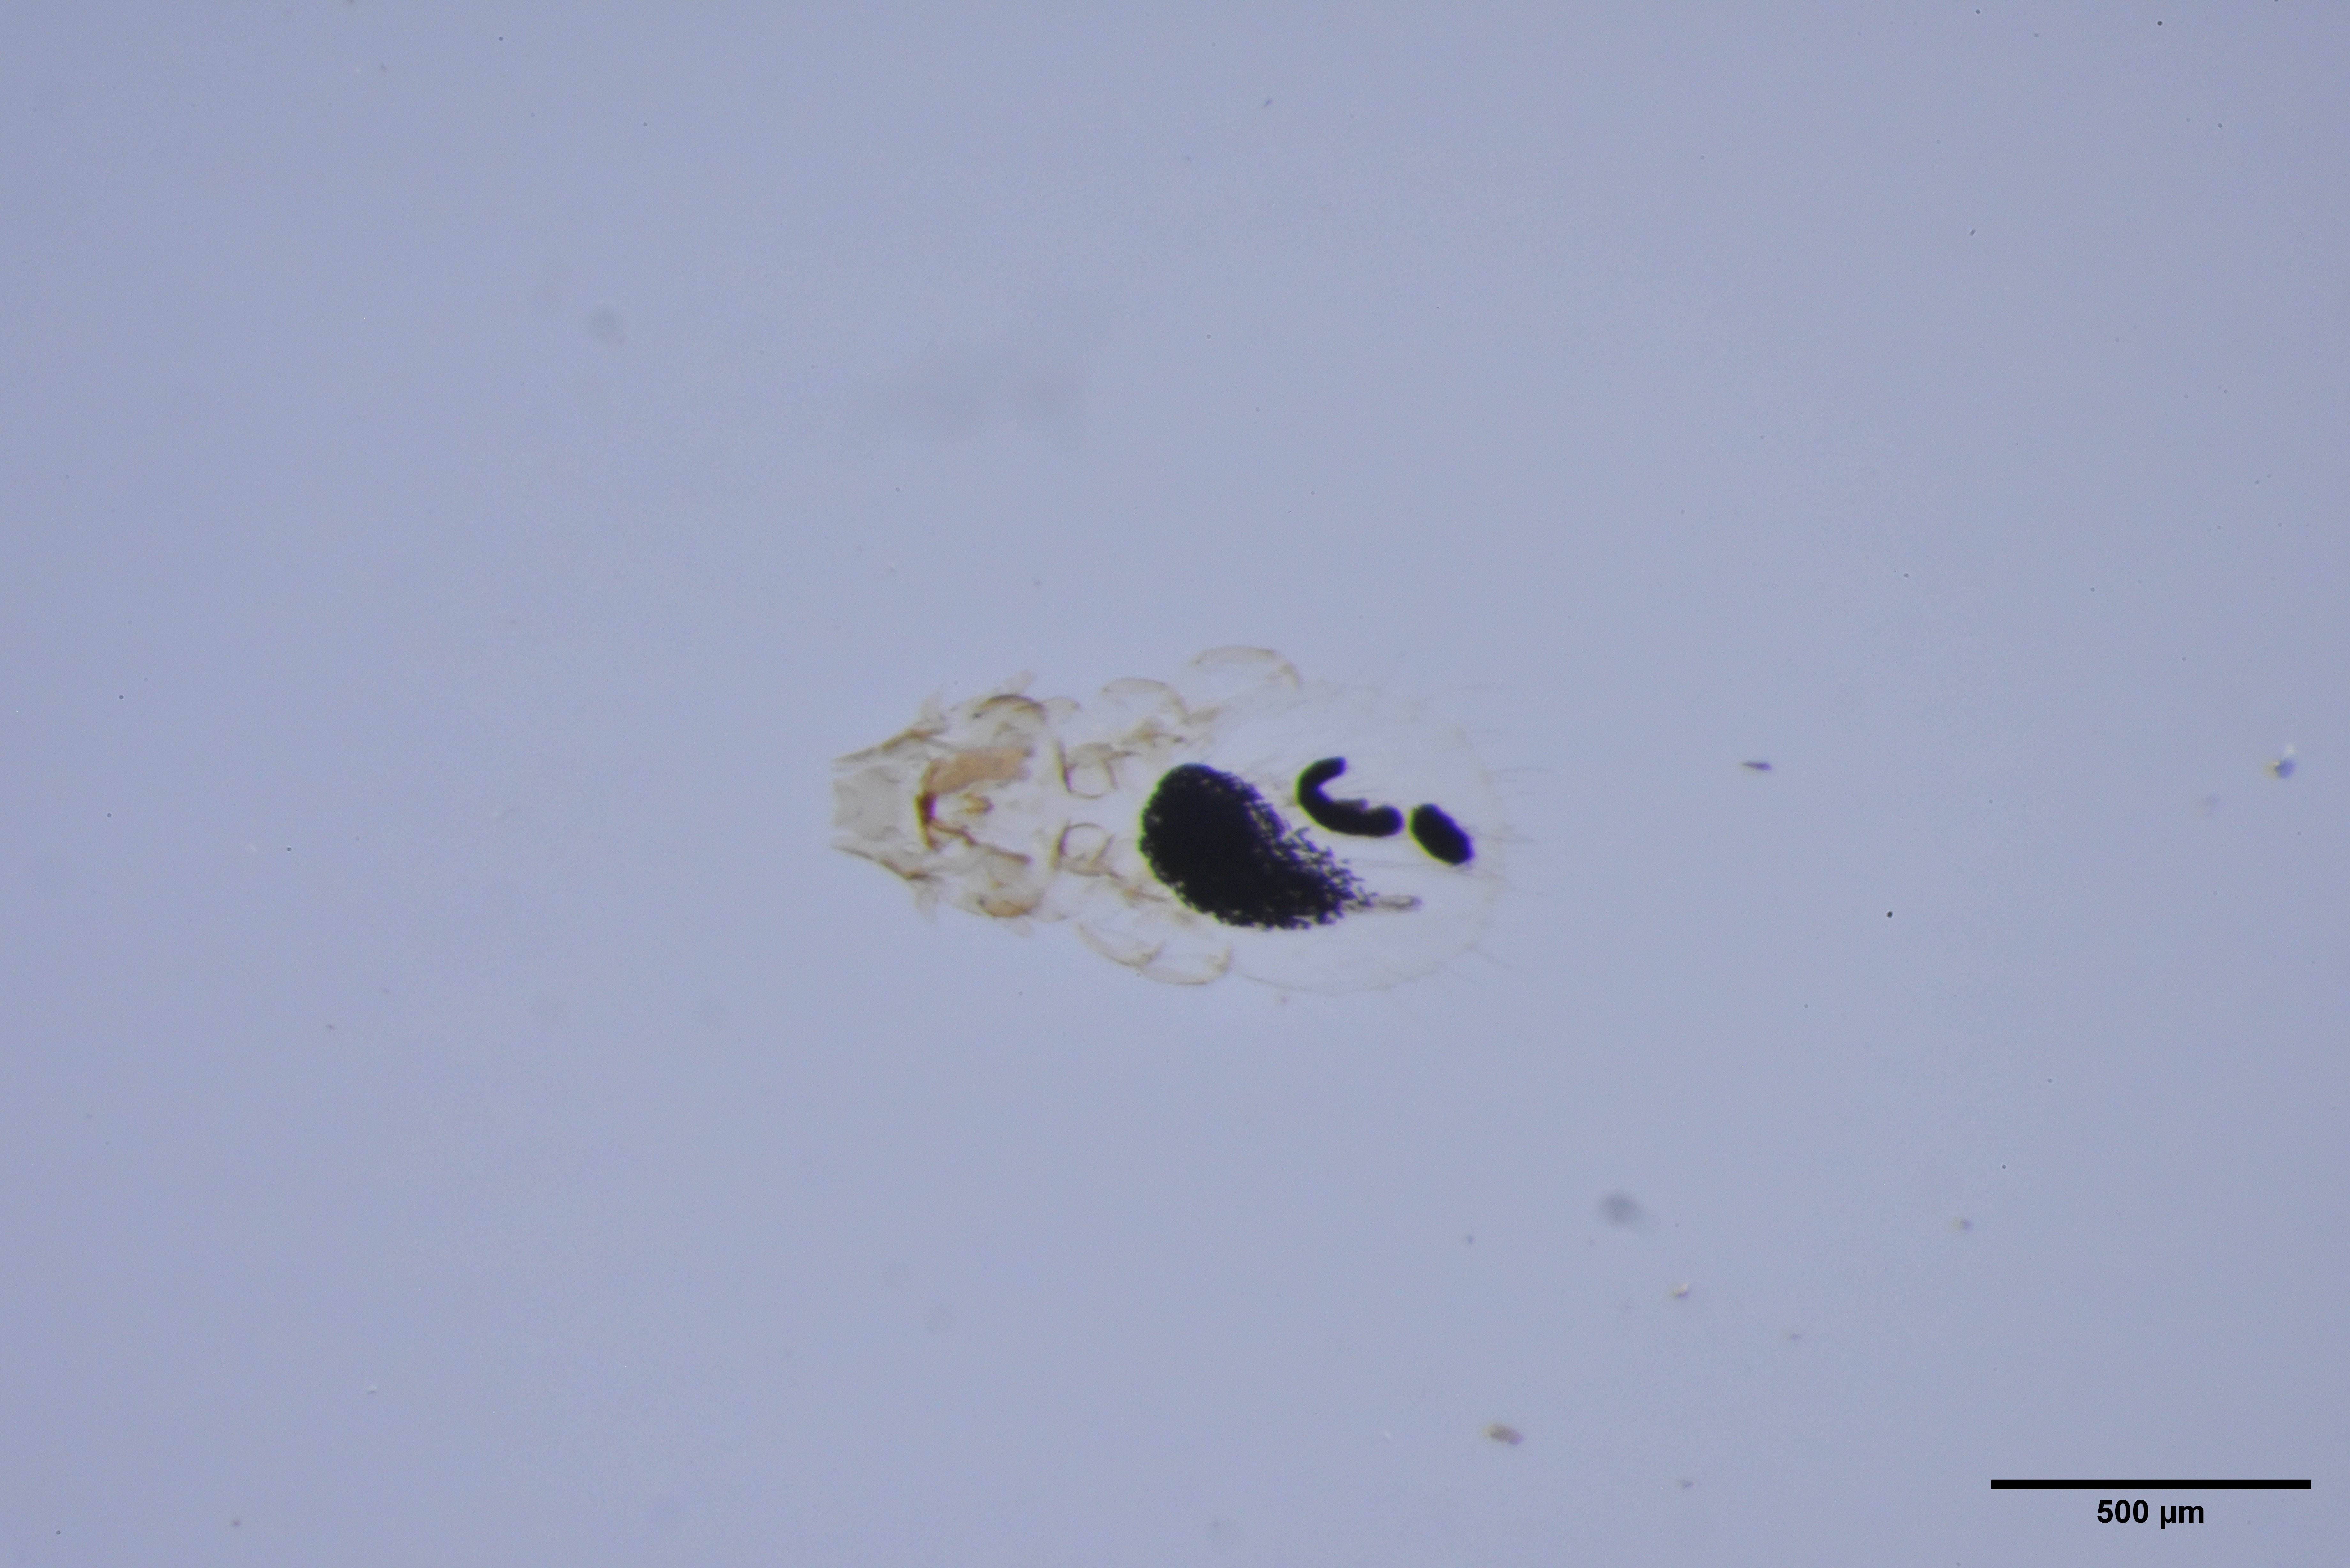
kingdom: Animalia
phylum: Arthropoda
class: Insecta
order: Psocodea
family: Philopteridae
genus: Philopterus
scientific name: Philopterus citrinellae
